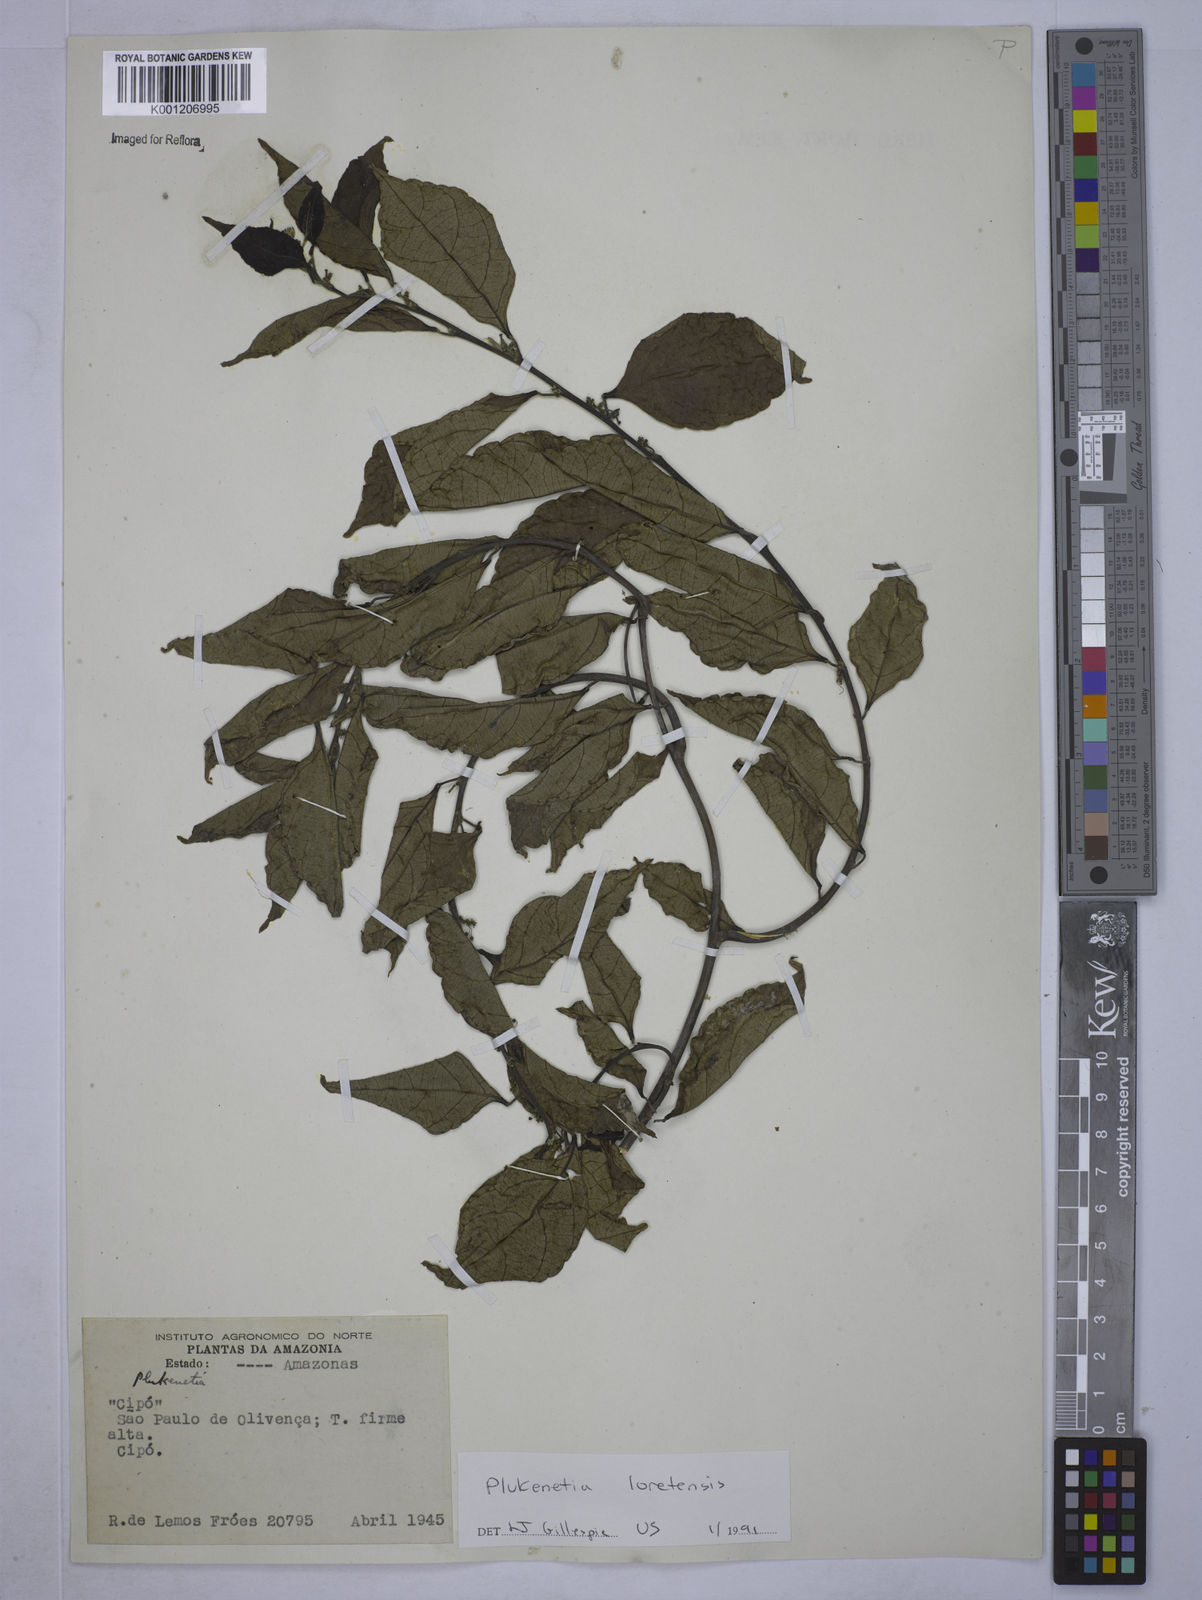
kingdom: Plantae
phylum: Tracheophyta
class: Magnoliopsida
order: Malpighiales
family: Euphorbiaceae
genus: Plukenetia
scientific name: Plukenetia loretensis
